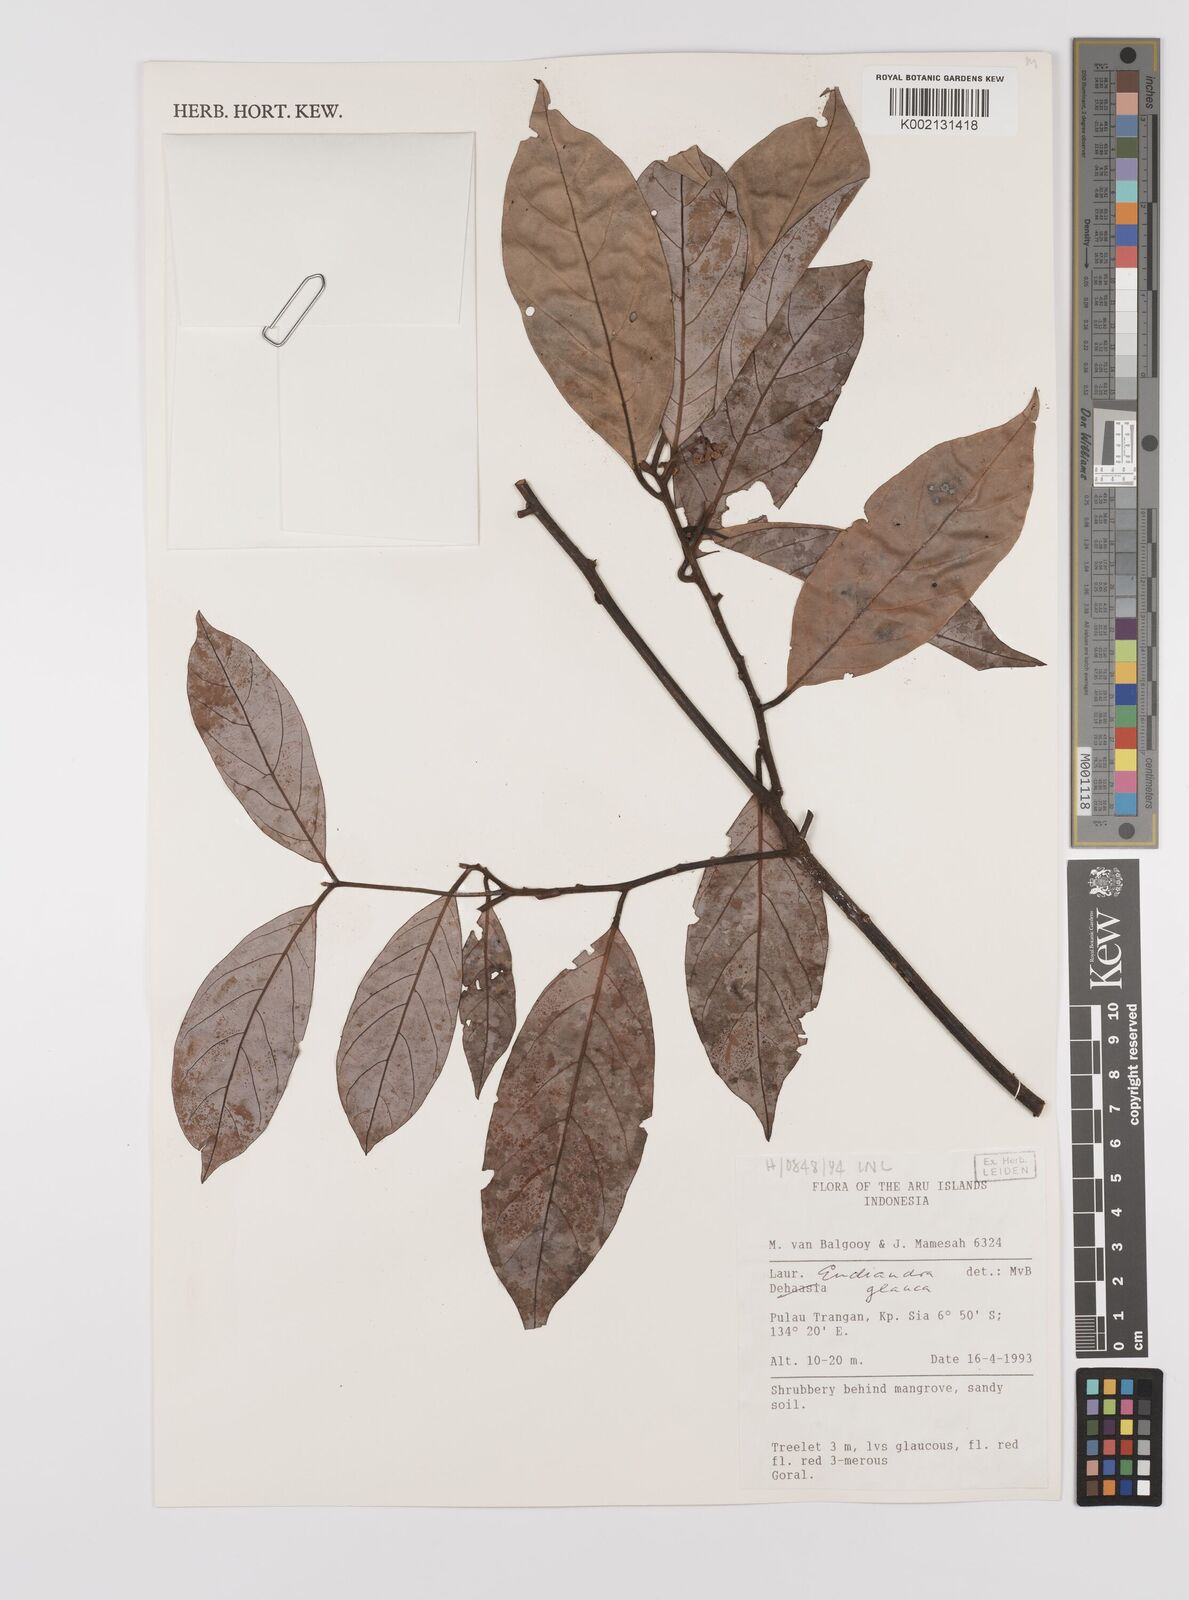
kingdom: Plantae
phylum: Tracheophyta
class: Magnoliopsida
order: Laurales
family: Lauraceae
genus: Endiandra
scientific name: Endiandra glauca
